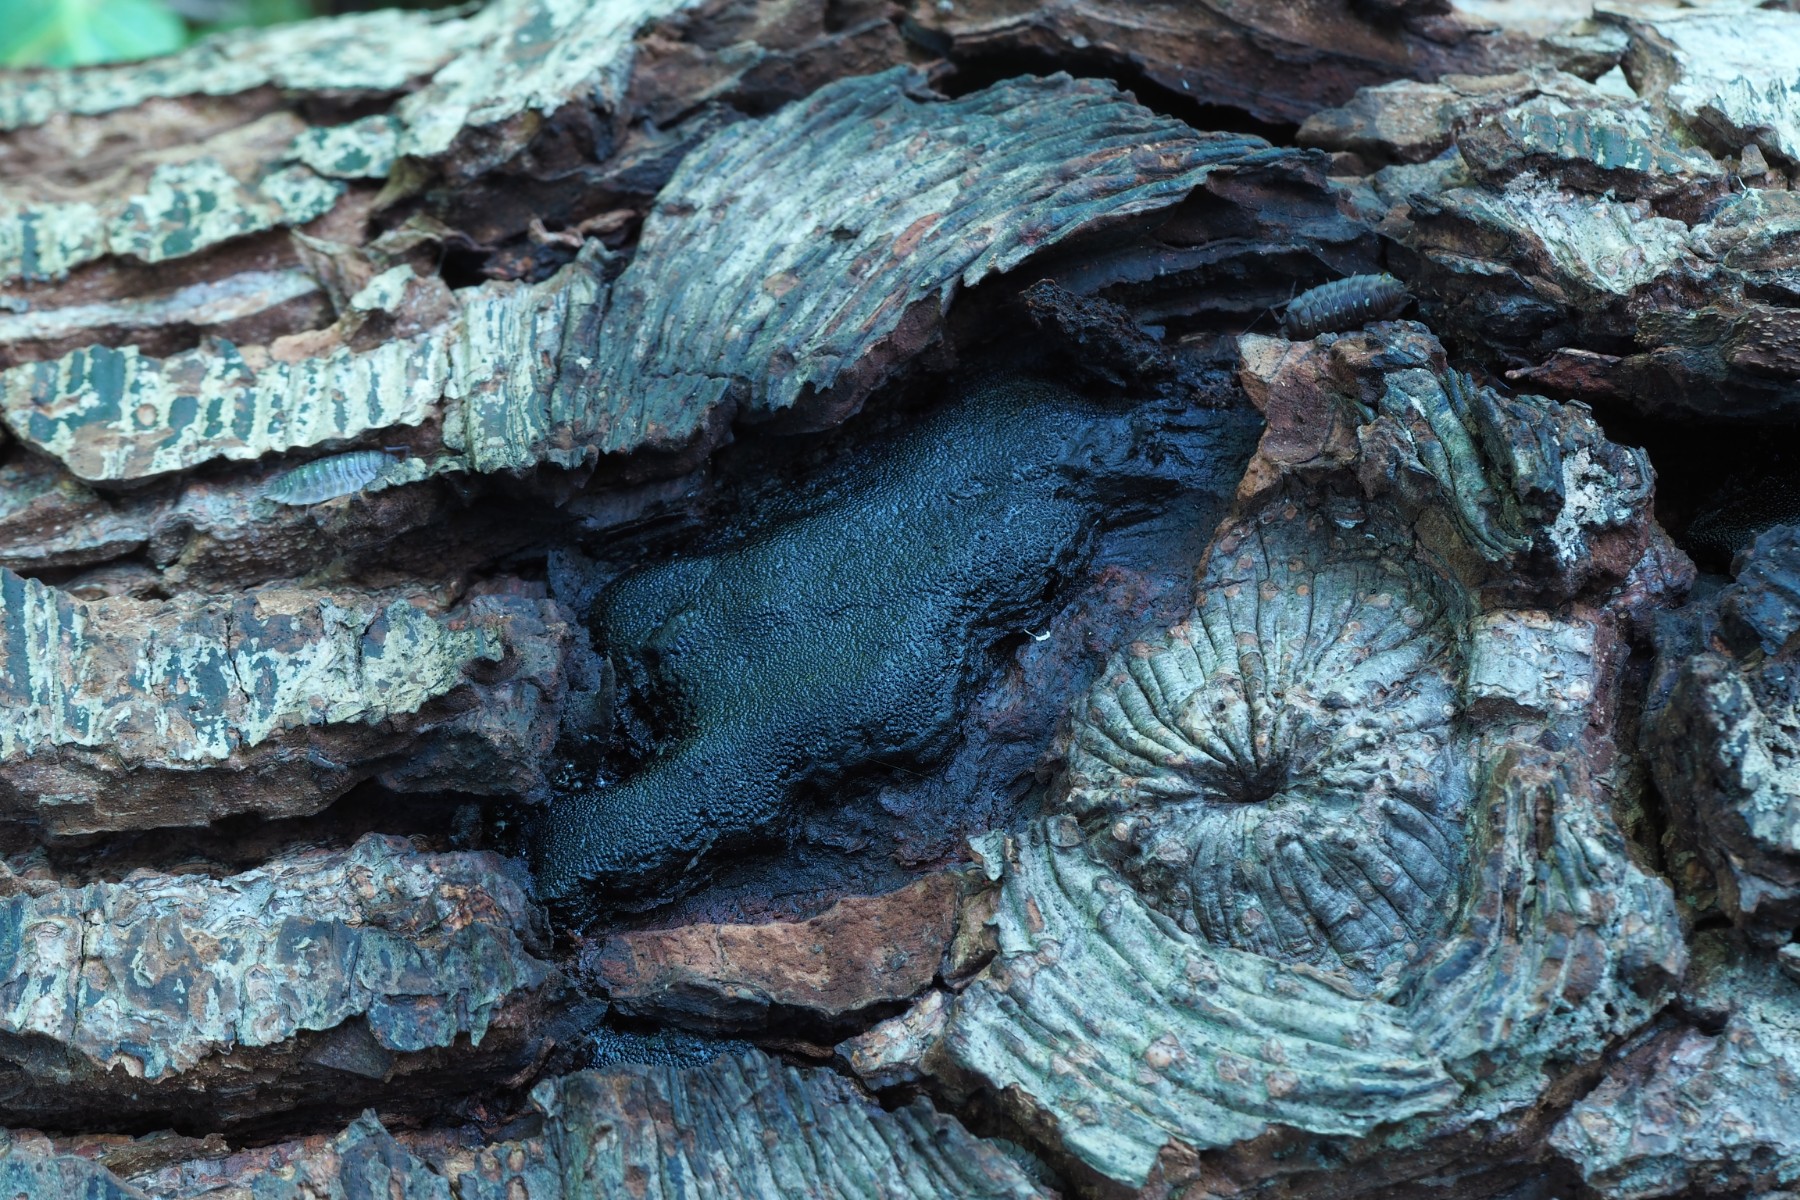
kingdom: Fungi
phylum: Ascomycota
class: Sordariomycetes
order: Boliniales
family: Boliniaceae
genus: Camarops
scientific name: Camarops polysperma
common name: elle-kulsnegl
